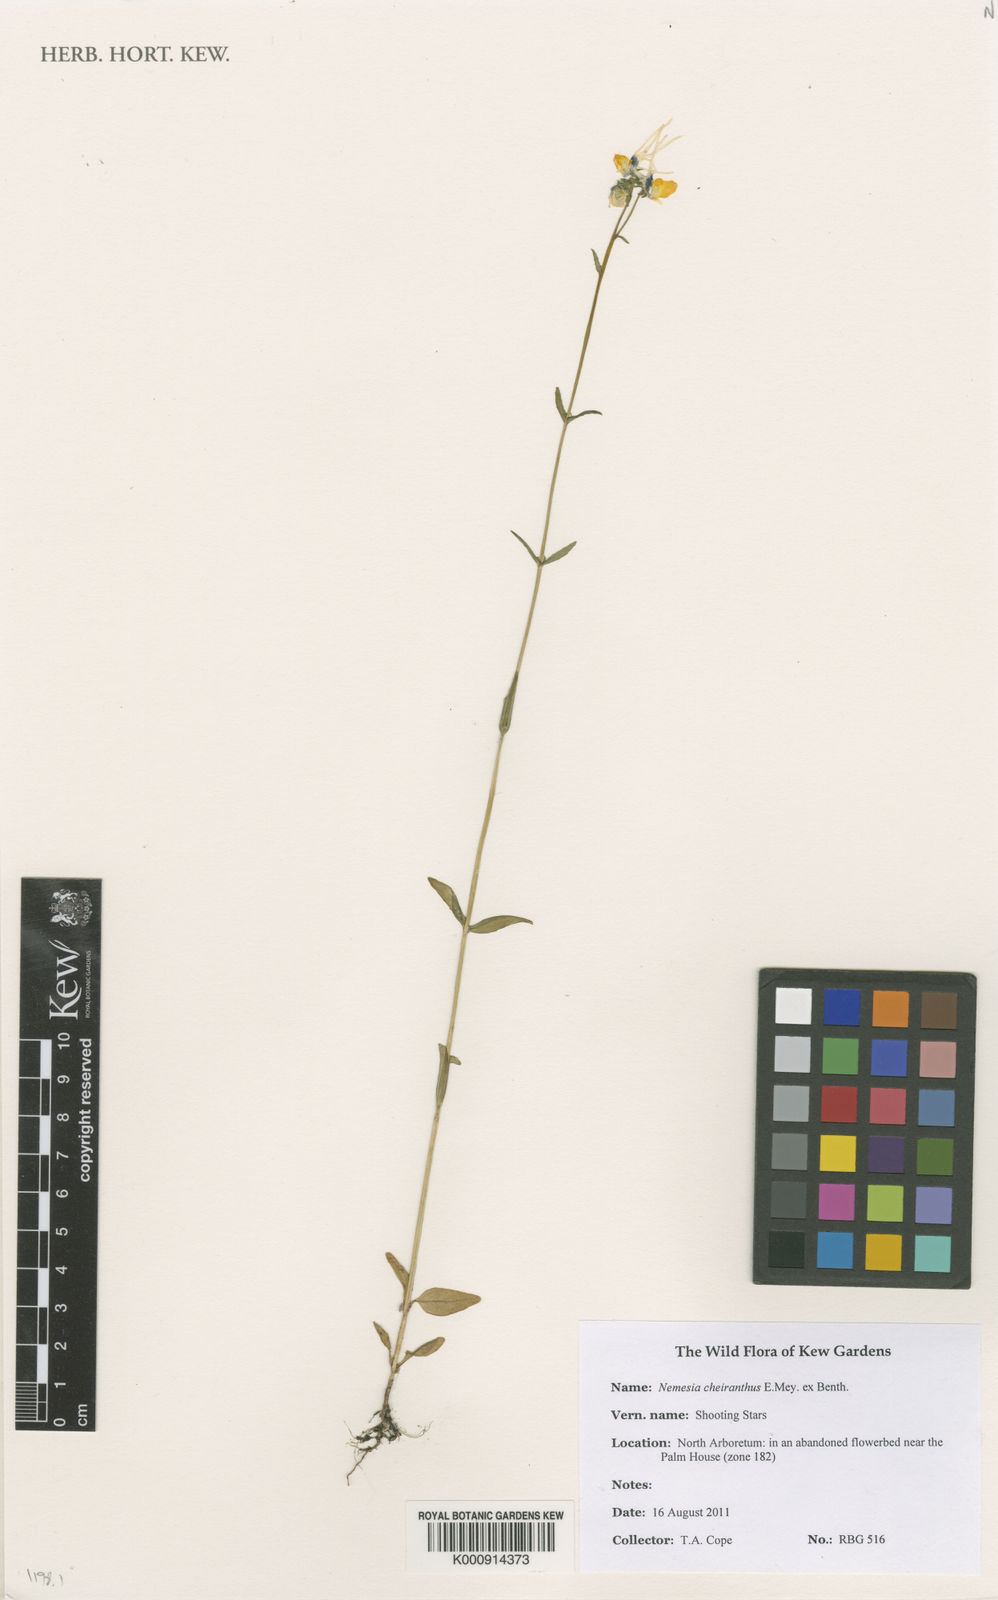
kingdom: Plantae
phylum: Tracheophyta
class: Magnoliopsida
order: Lamiales
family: Scrophulariaceae
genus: Nemesia
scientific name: Nemesia cheiranthus
